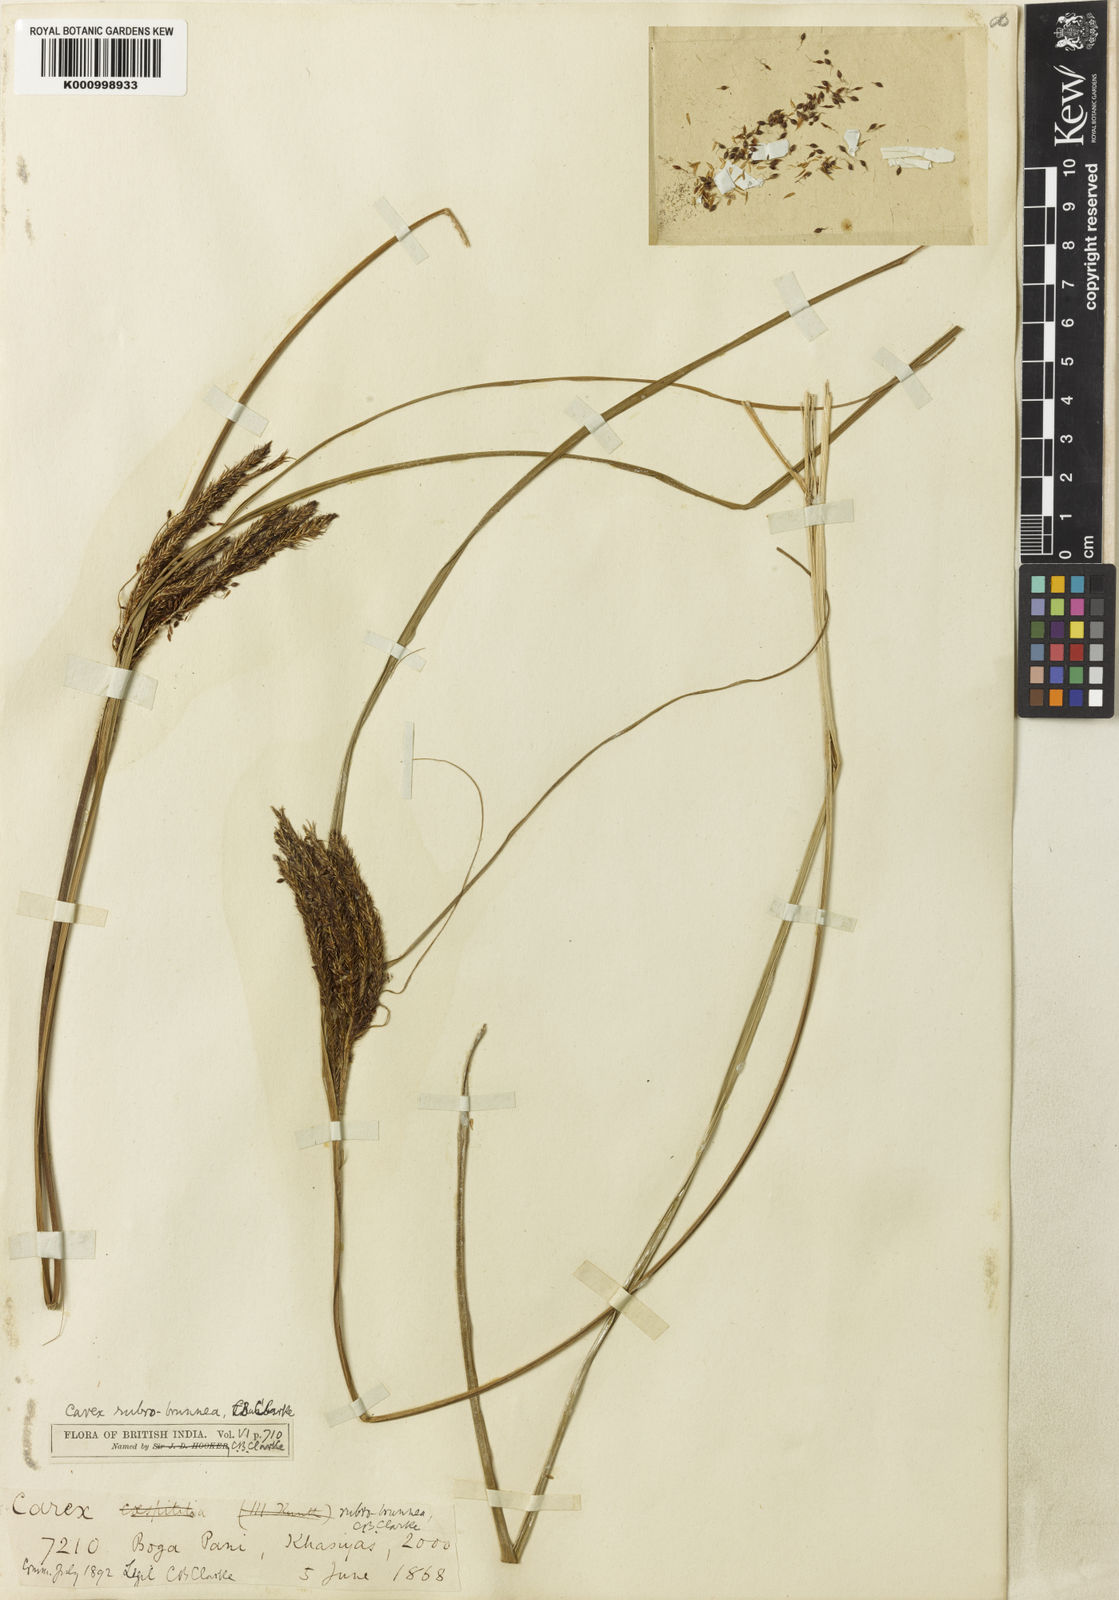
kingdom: Plantae
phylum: Tracheophyta
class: Liliopsida
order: Poales
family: Cyperaceae
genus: Carex
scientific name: Carex rubrobrunnea
